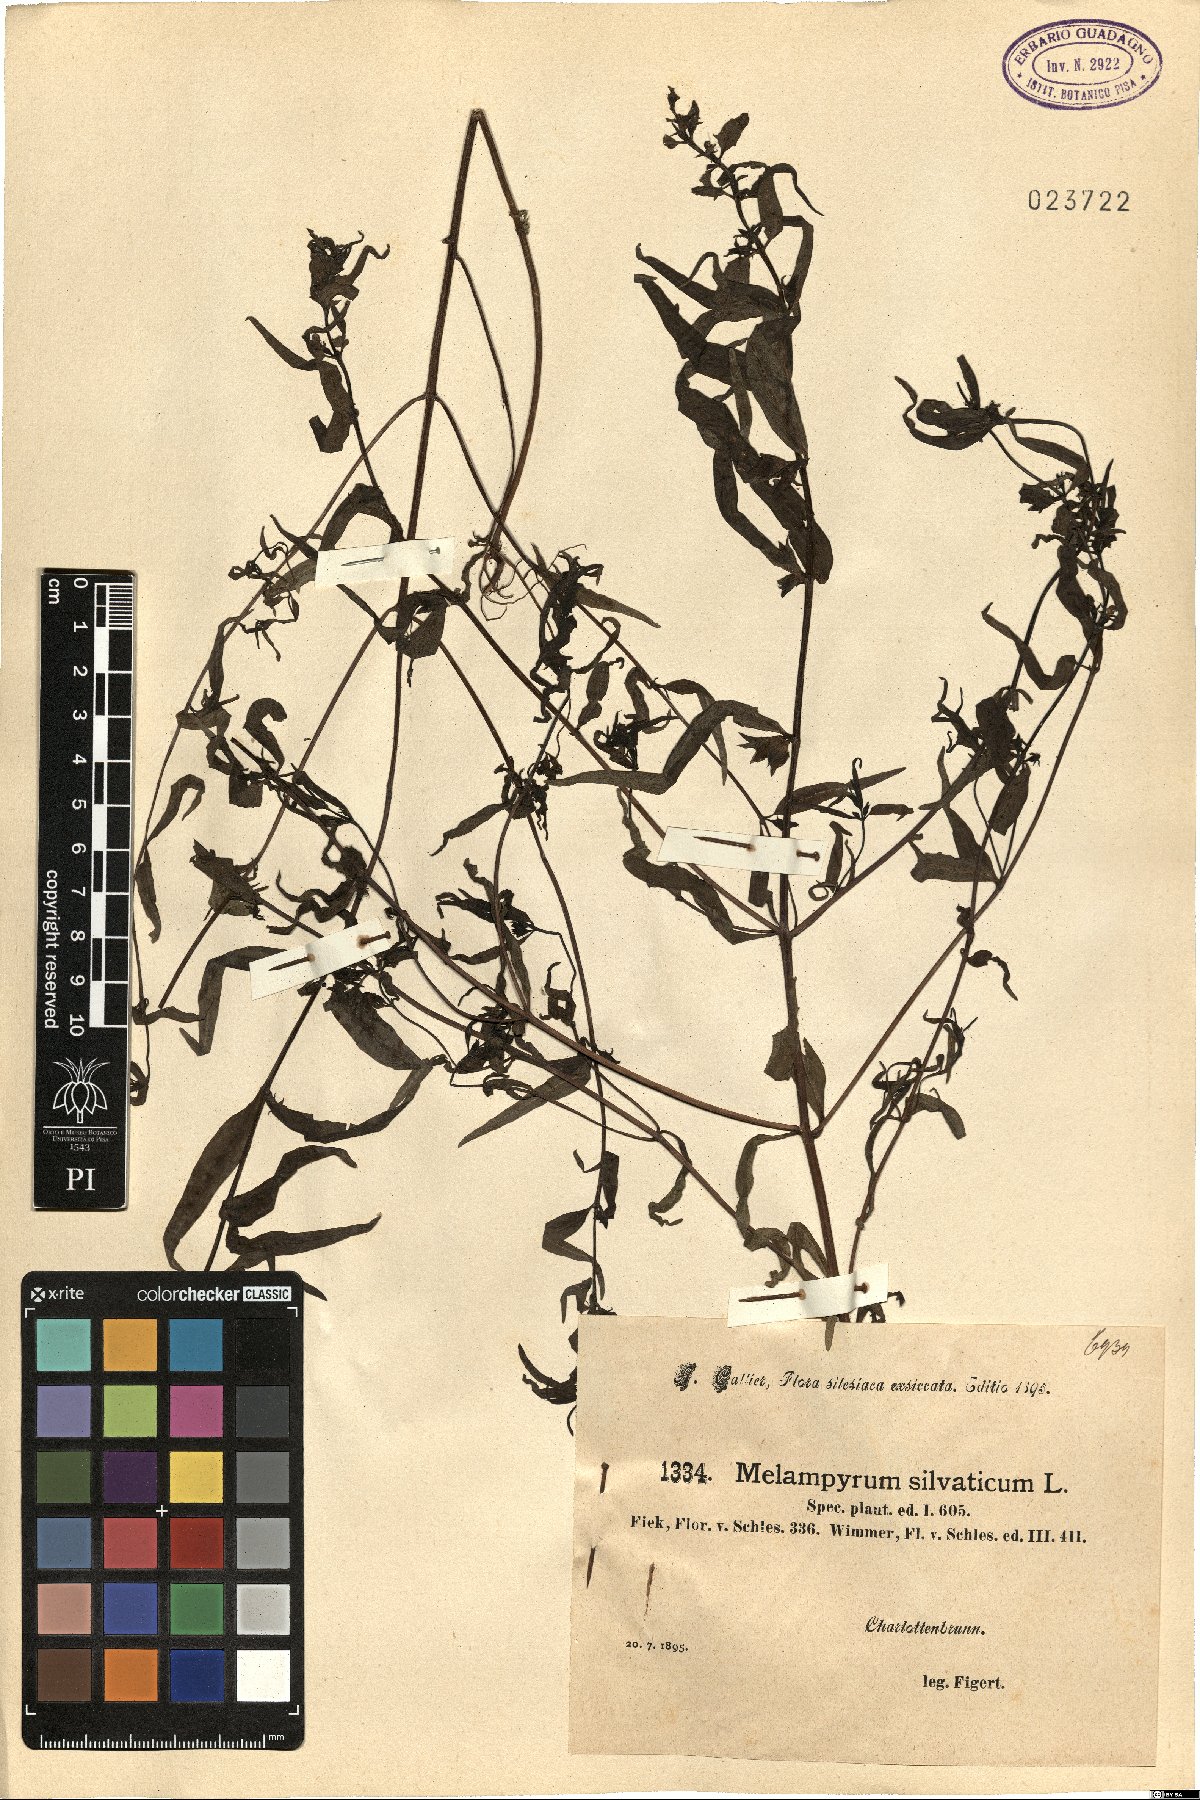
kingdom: Plantae
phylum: Tracheophyta
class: Magnoliopsida
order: Lamiales
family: Orobanchaceae
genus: Melampyrum
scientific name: Melampyrum sylvaticum
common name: Small cow-wheat
